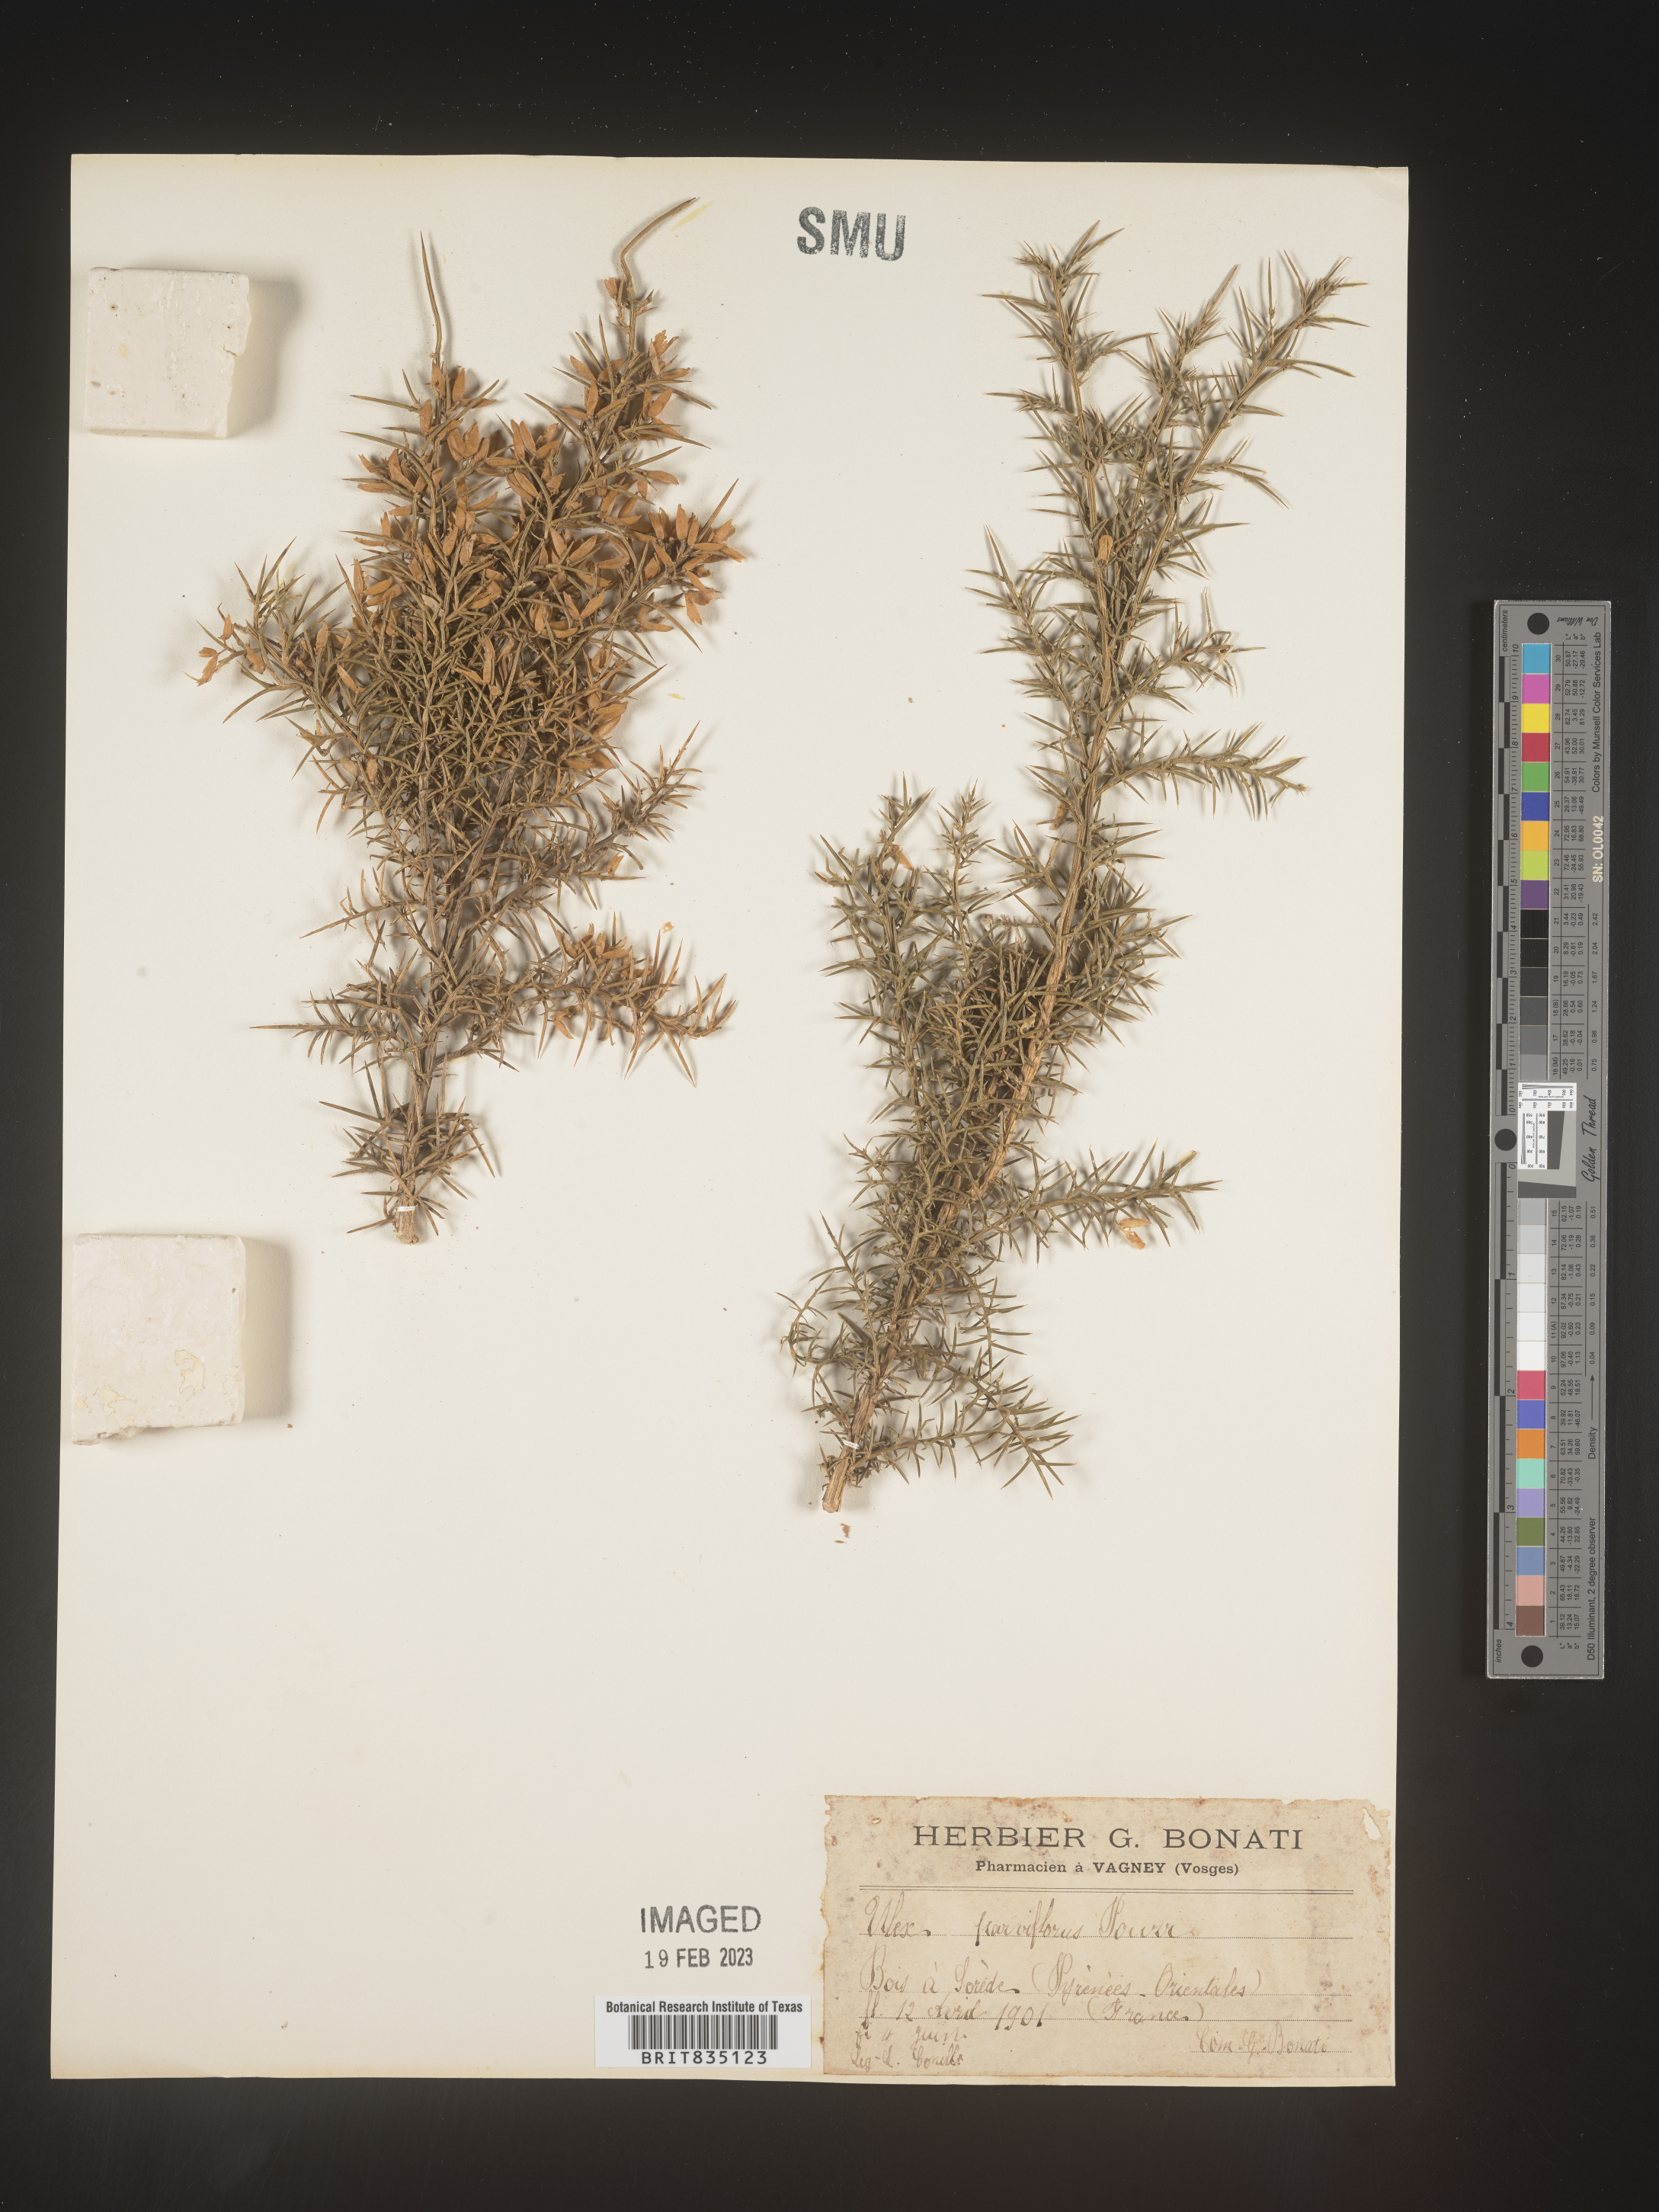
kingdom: Plantae
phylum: Tracheophyta
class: Magnoliopsida
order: Fabales
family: Fabaceae
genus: Ulex
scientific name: Ulex
